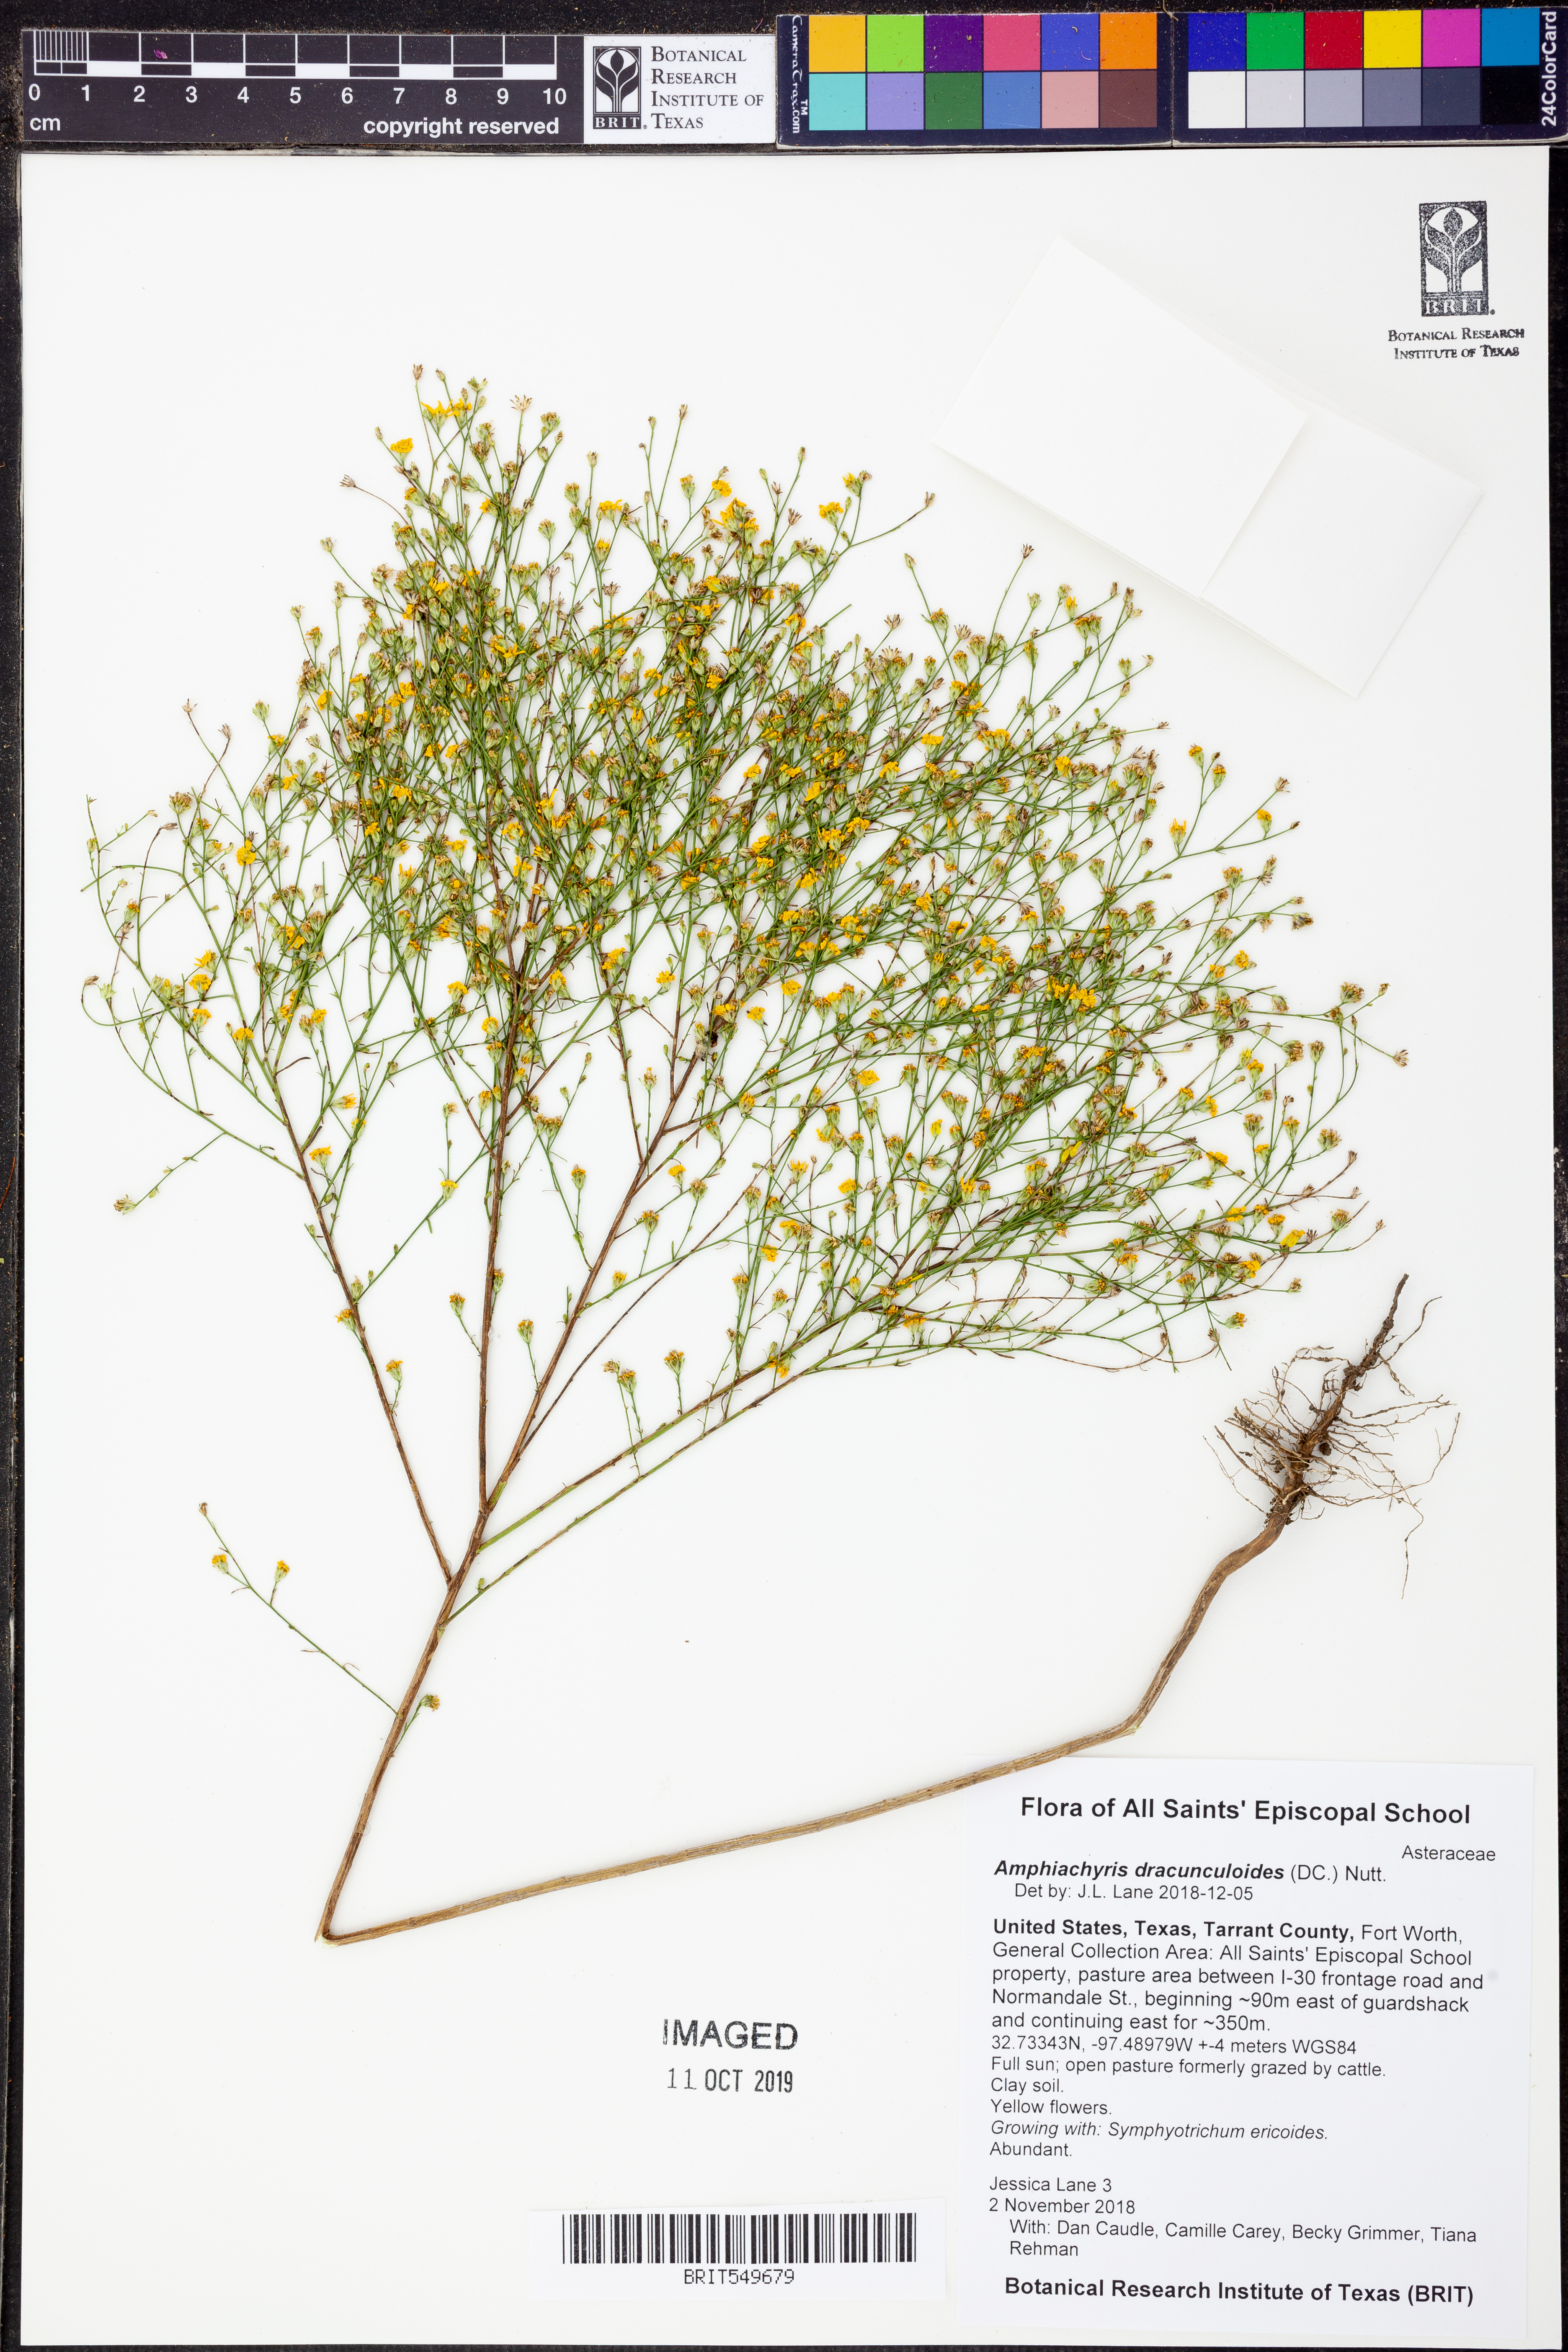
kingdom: Plantae
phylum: Tracheophyta
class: Magnoliopsida
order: Asterales
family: Asteraceae
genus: Amphiachyris
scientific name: Amphiachyris dracunculoides
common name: Broomweed
